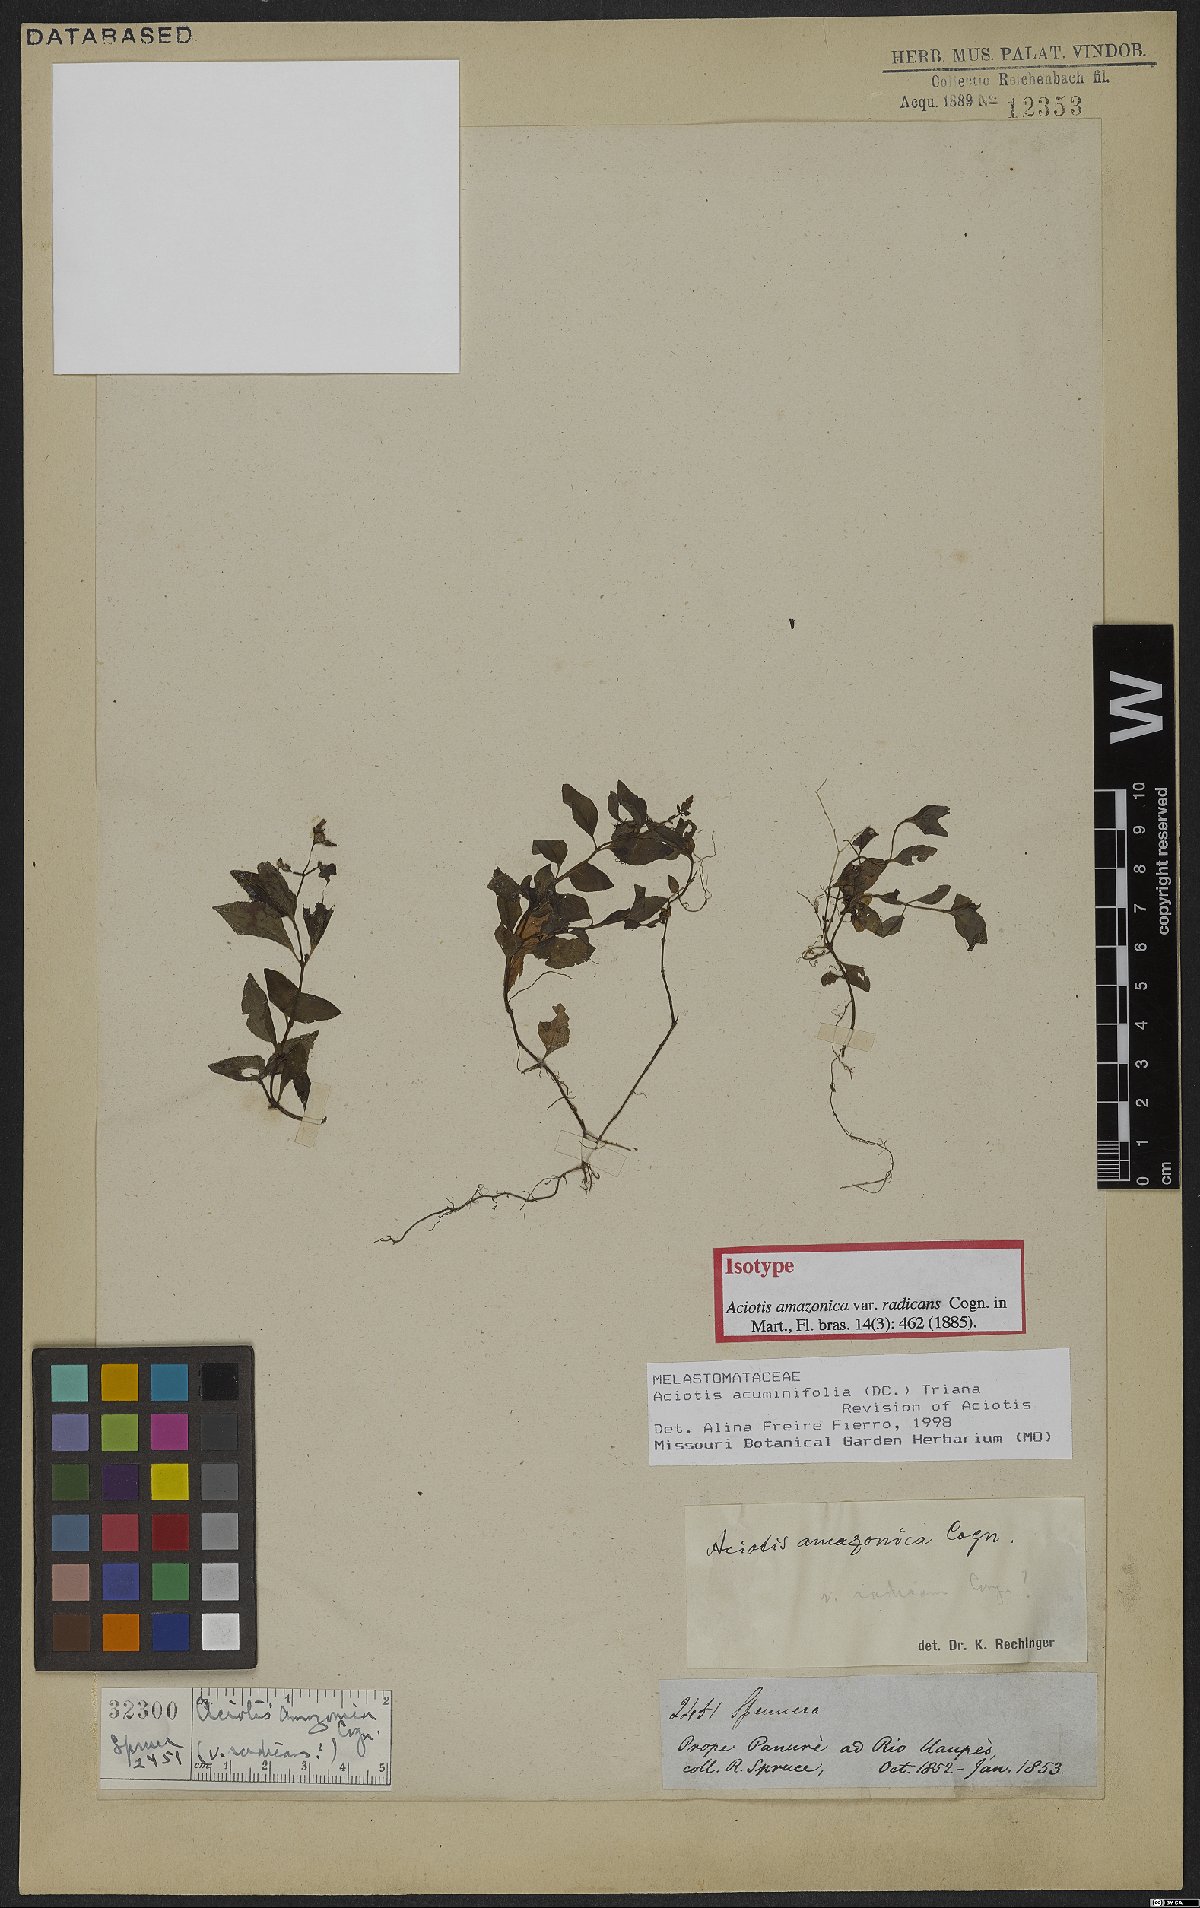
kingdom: Plantae
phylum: Tracheophyta
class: Magnoliopsida
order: Myrtales
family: Melastomataceae
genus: Aciotis
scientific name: Aciotis acuminifolia
